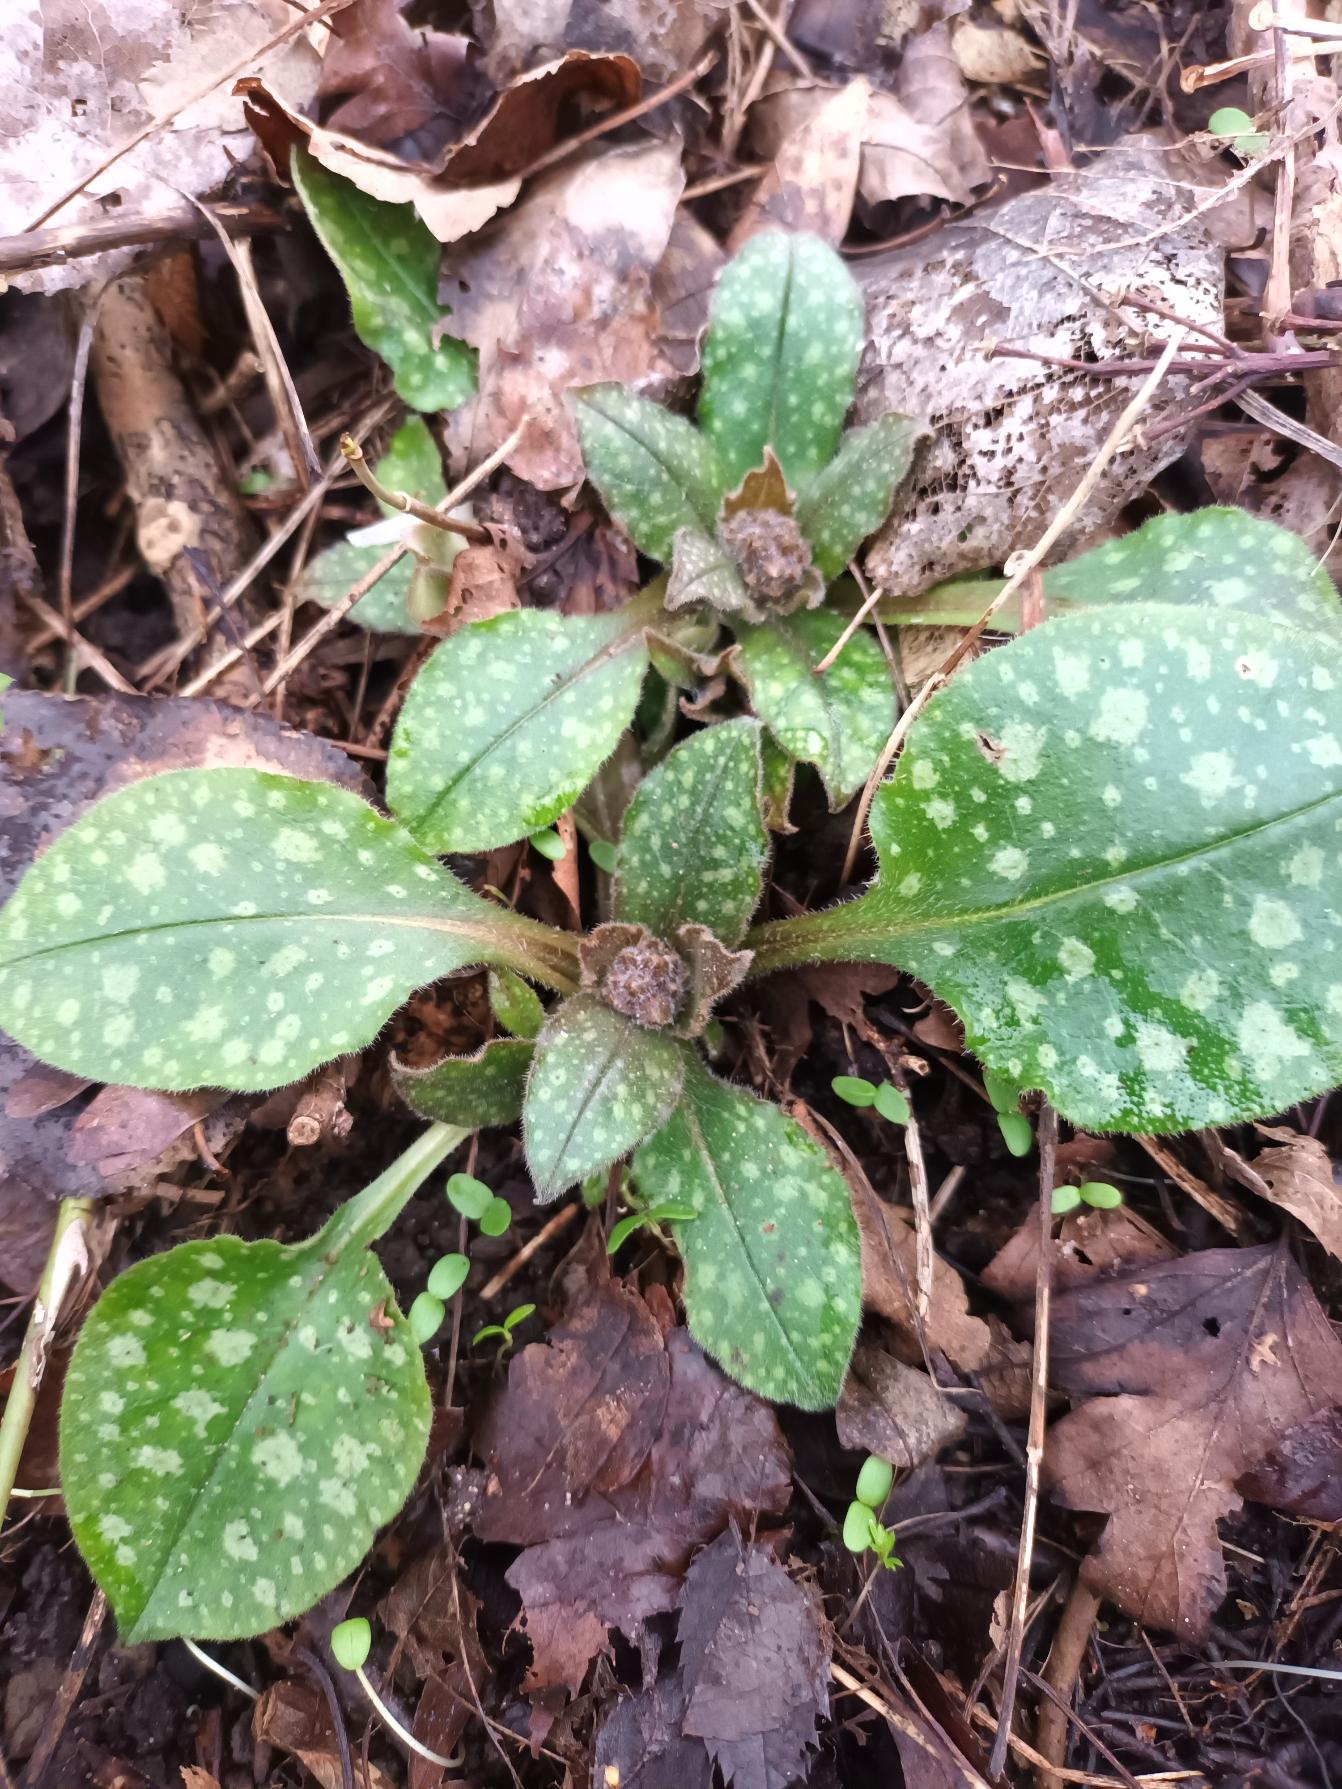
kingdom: Plantae
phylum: Tracheophyta
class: Magnoliopsida
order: Boraginales
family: Boraginaceae
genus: Pulmonaria
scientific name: Pulmonaria officinalis
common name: Hvidplettet lungeurt
